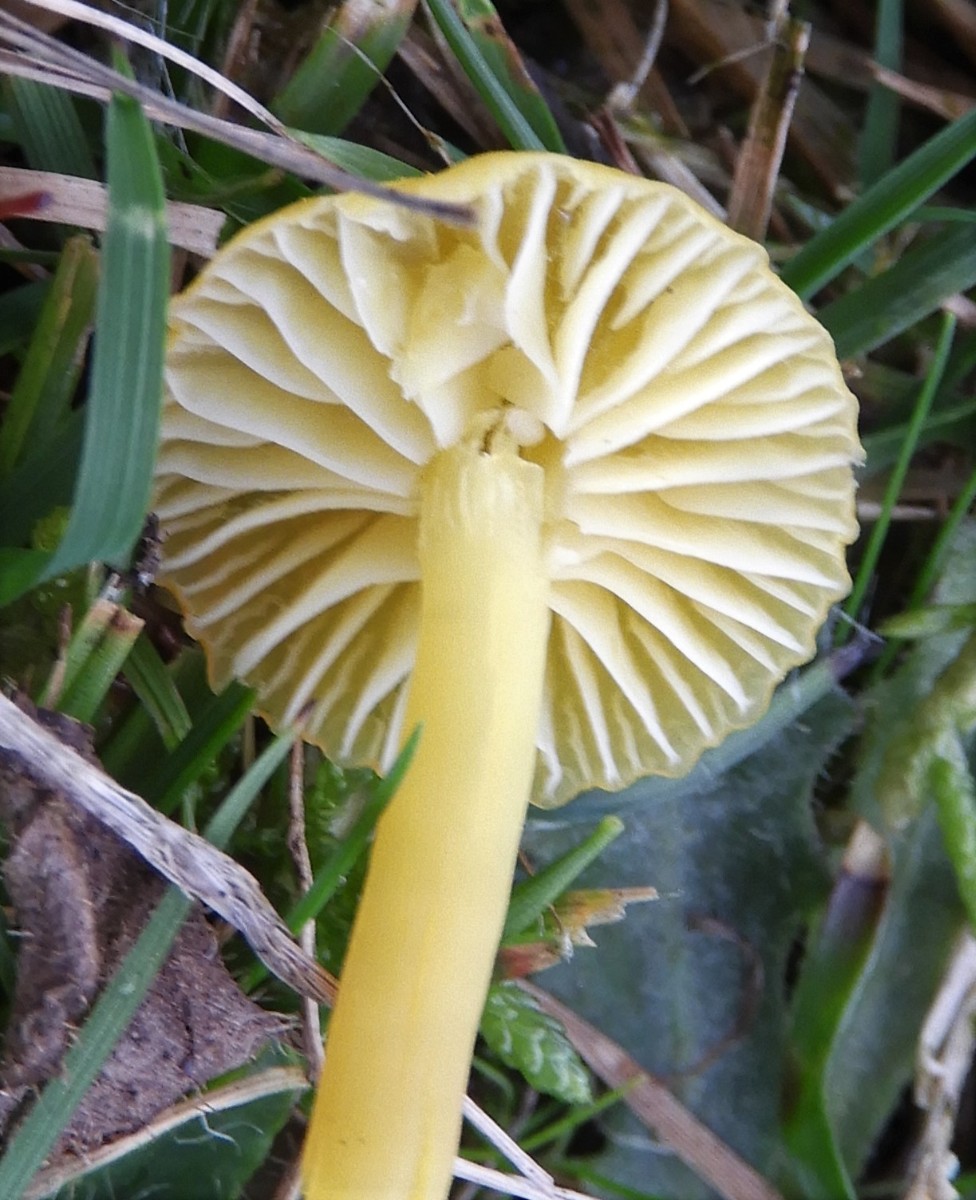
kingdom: Fungi
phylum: Basidiomycota
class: Agaricomycetes
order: Agaricales
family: Hygrophoraceae
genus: Hygrocybe
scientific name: Hygrocybe ceracea
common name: voksgul vokshat
